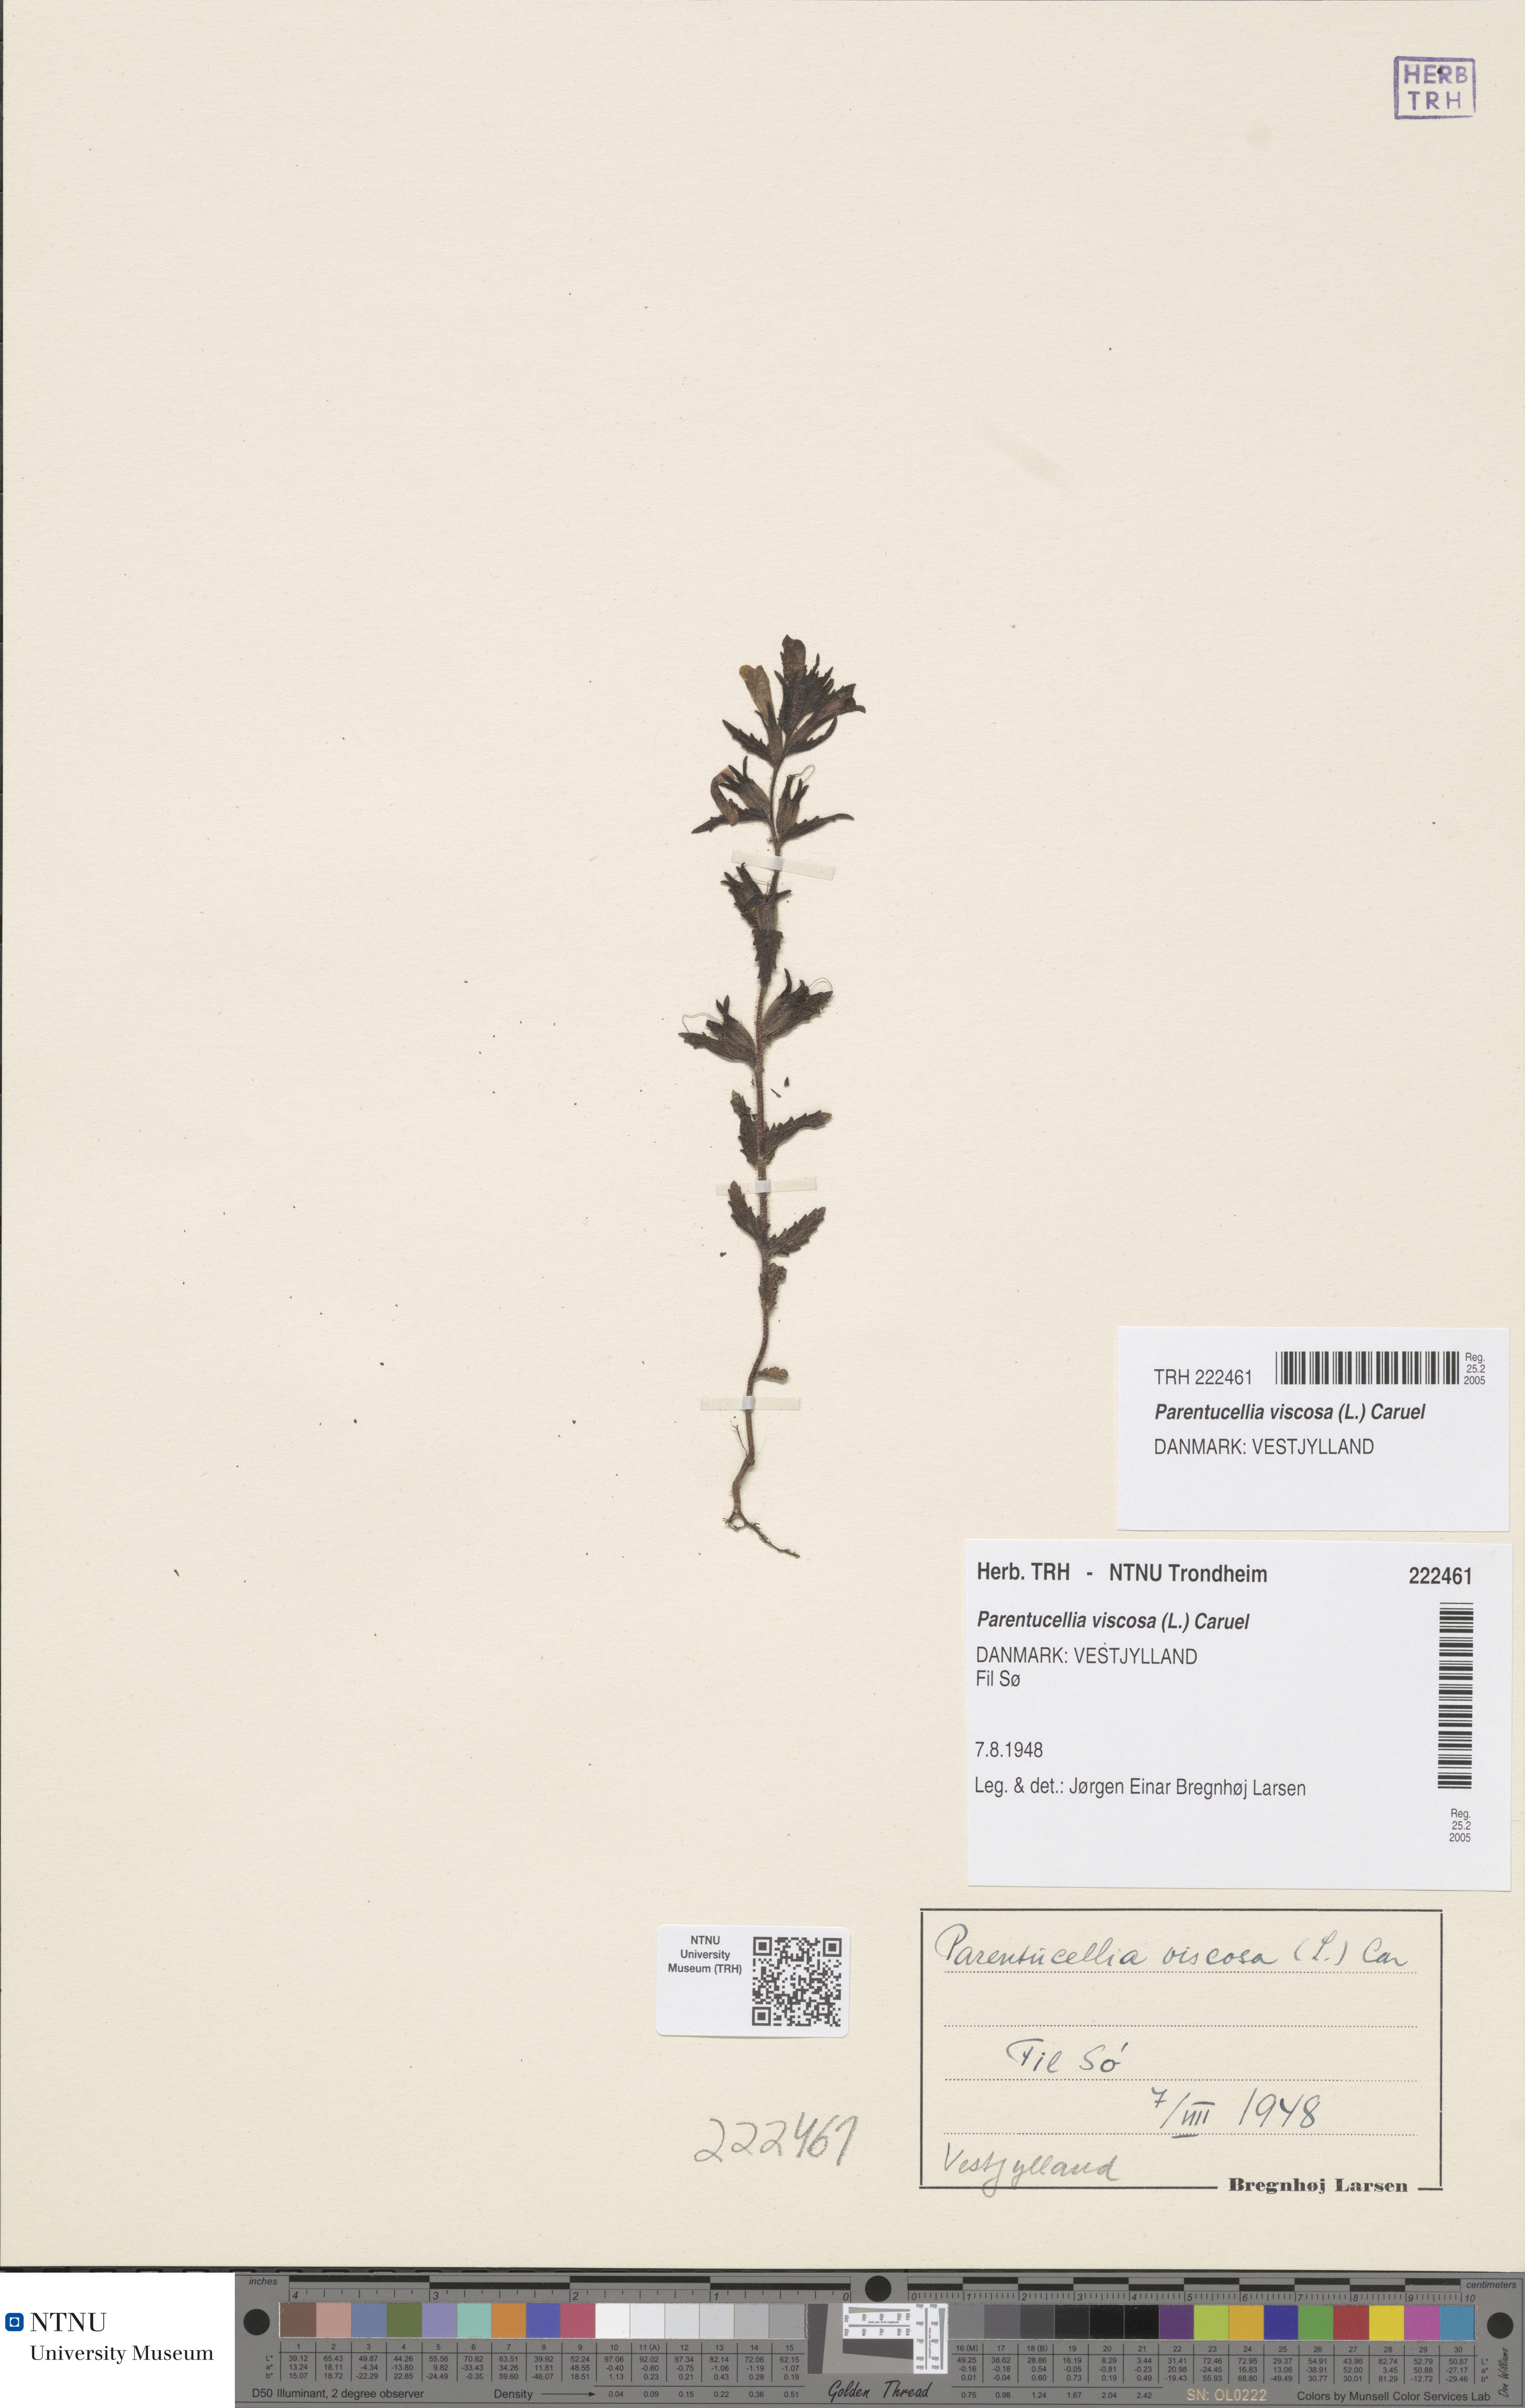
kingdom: Plantae
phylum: Tracheophyta
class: Magnoliopsida
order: Lamiales
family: Orobanchaceae
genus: Bellardia
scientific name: Bellardia viscosa
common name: Sticky parentucellia
